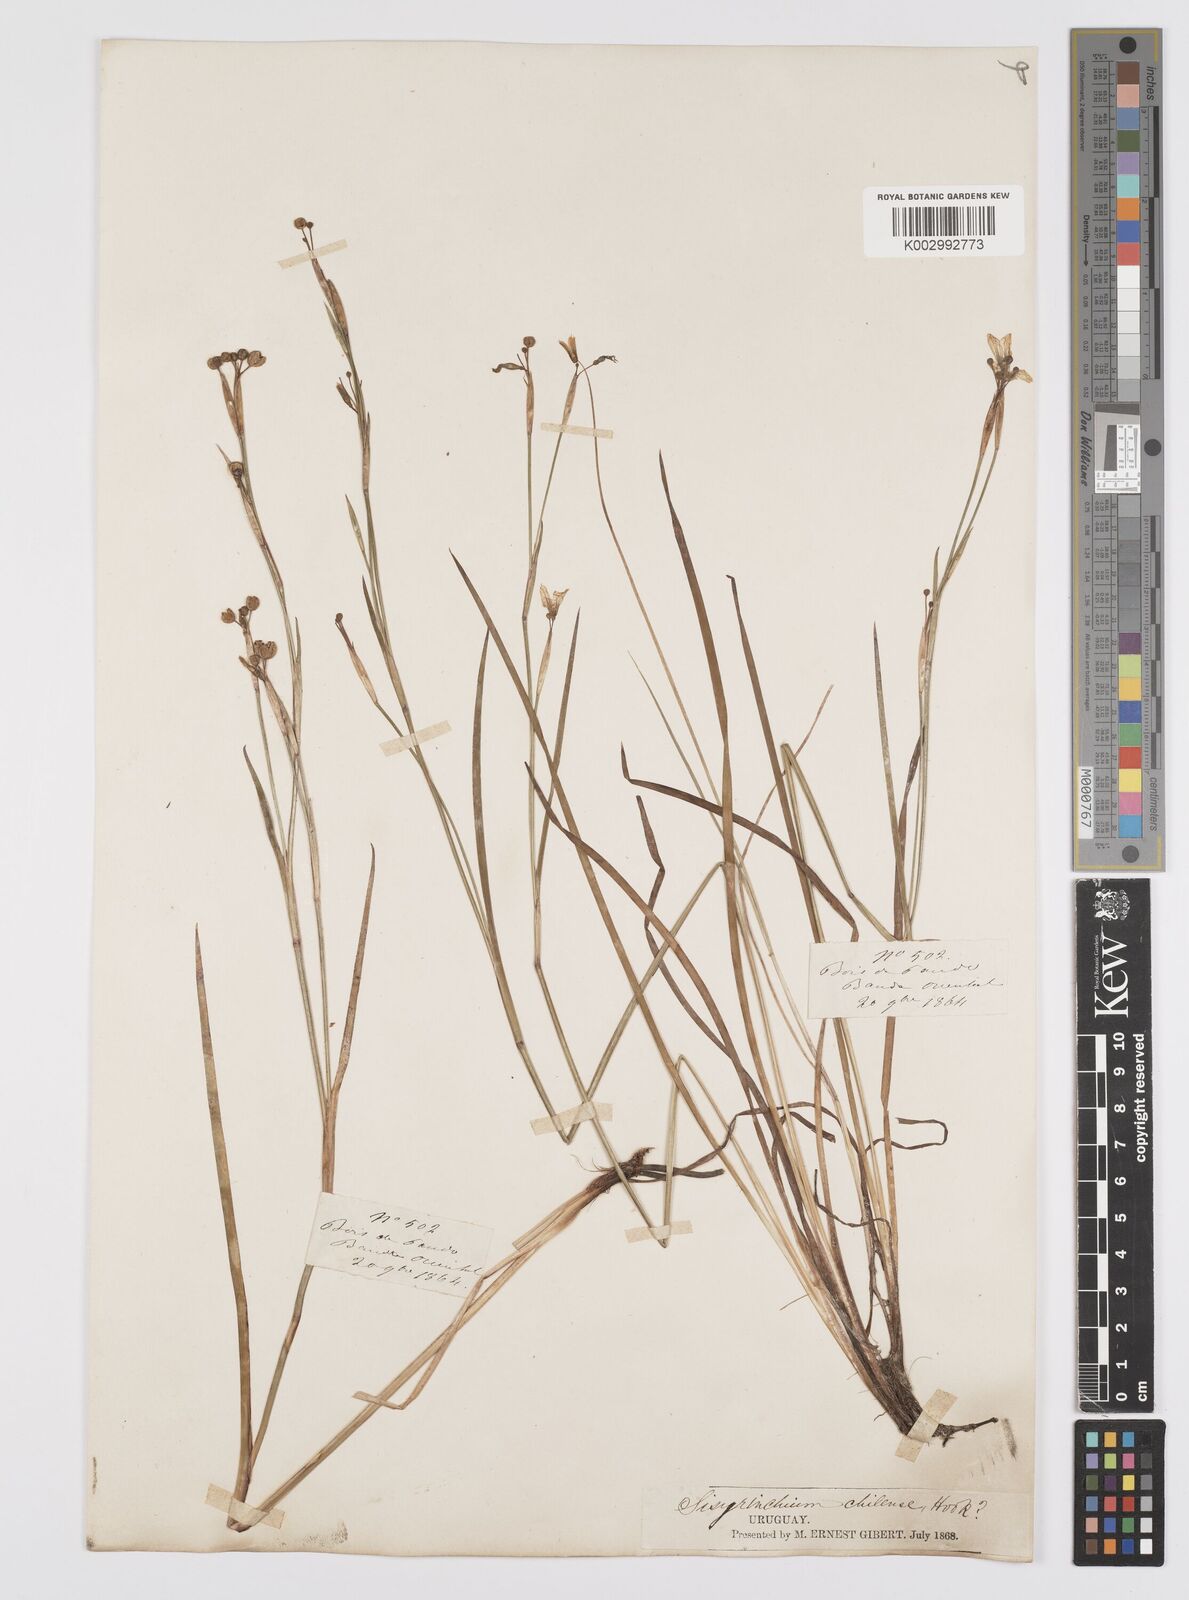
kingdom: Plantae
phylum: Tracheophyta
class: Liliopsida
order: Asparagales
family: Iridaceae
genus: Sisyrinchium
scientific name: Sisyrinchium chilense
